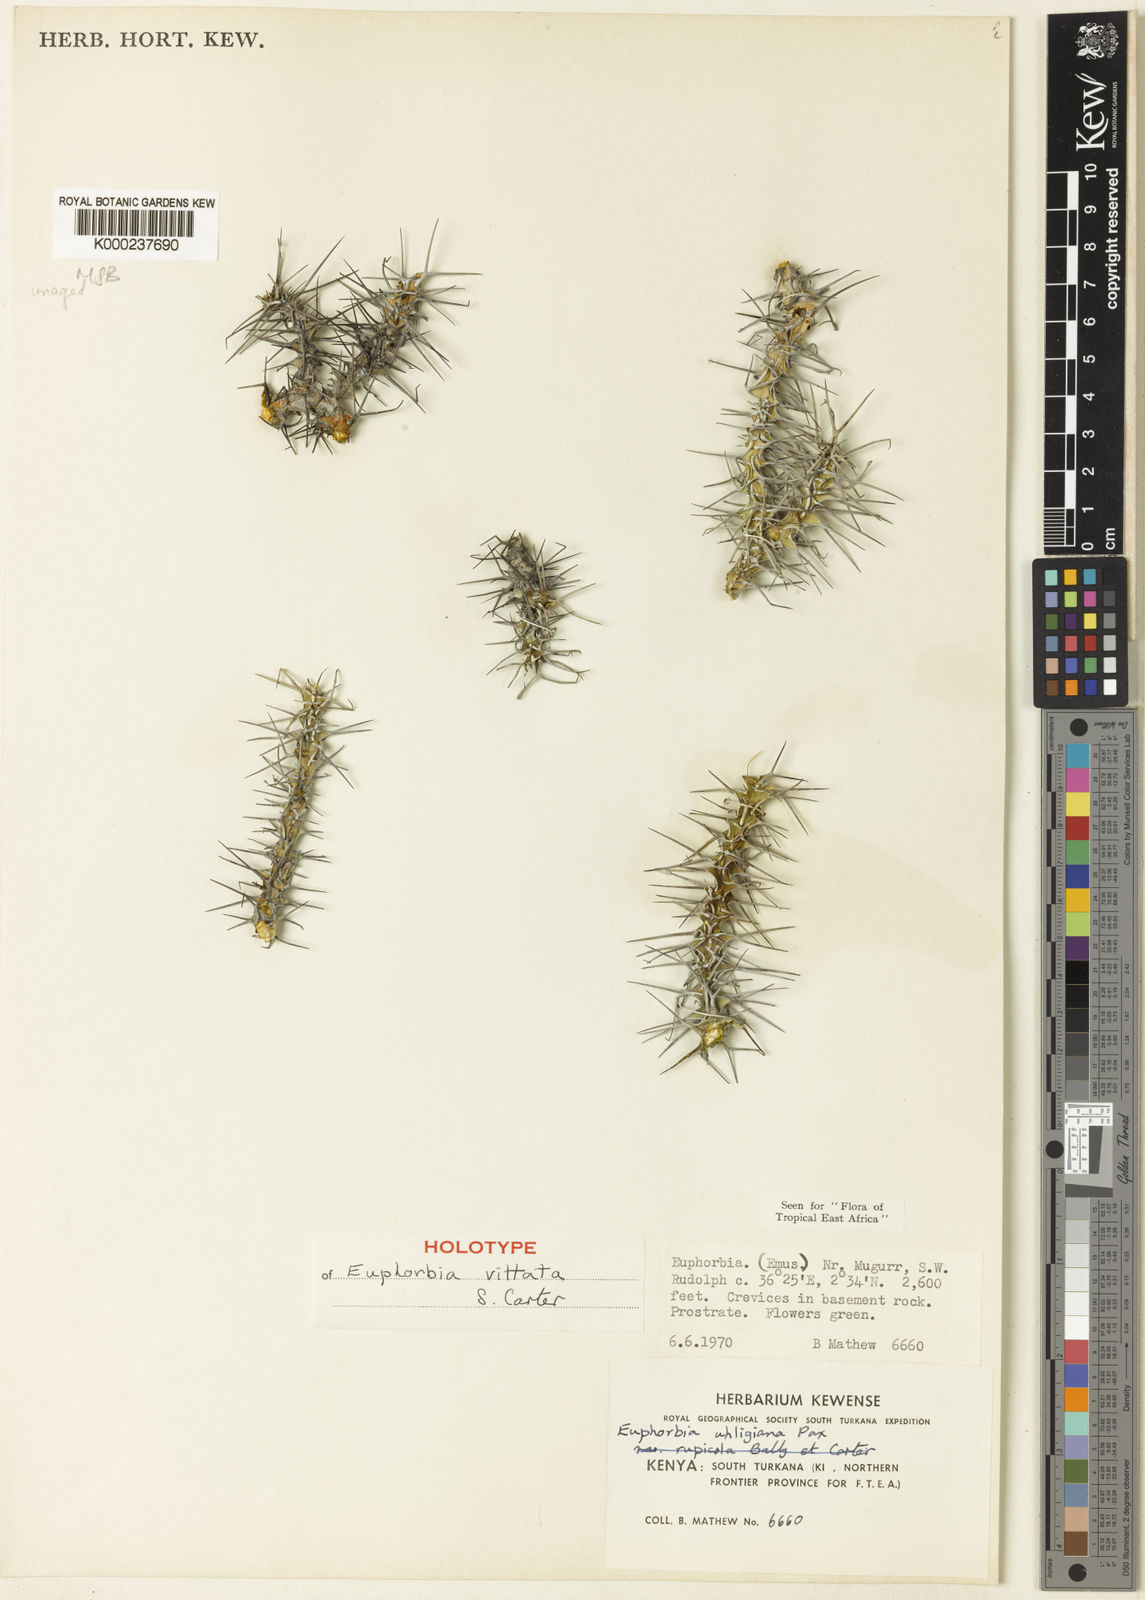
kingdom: Plantae
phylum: Tracheophyta
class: Magnoliopsida
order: Malpighiales
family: Euphorbiaceae
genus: Euphorbia
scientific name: Euphorbia vittata
